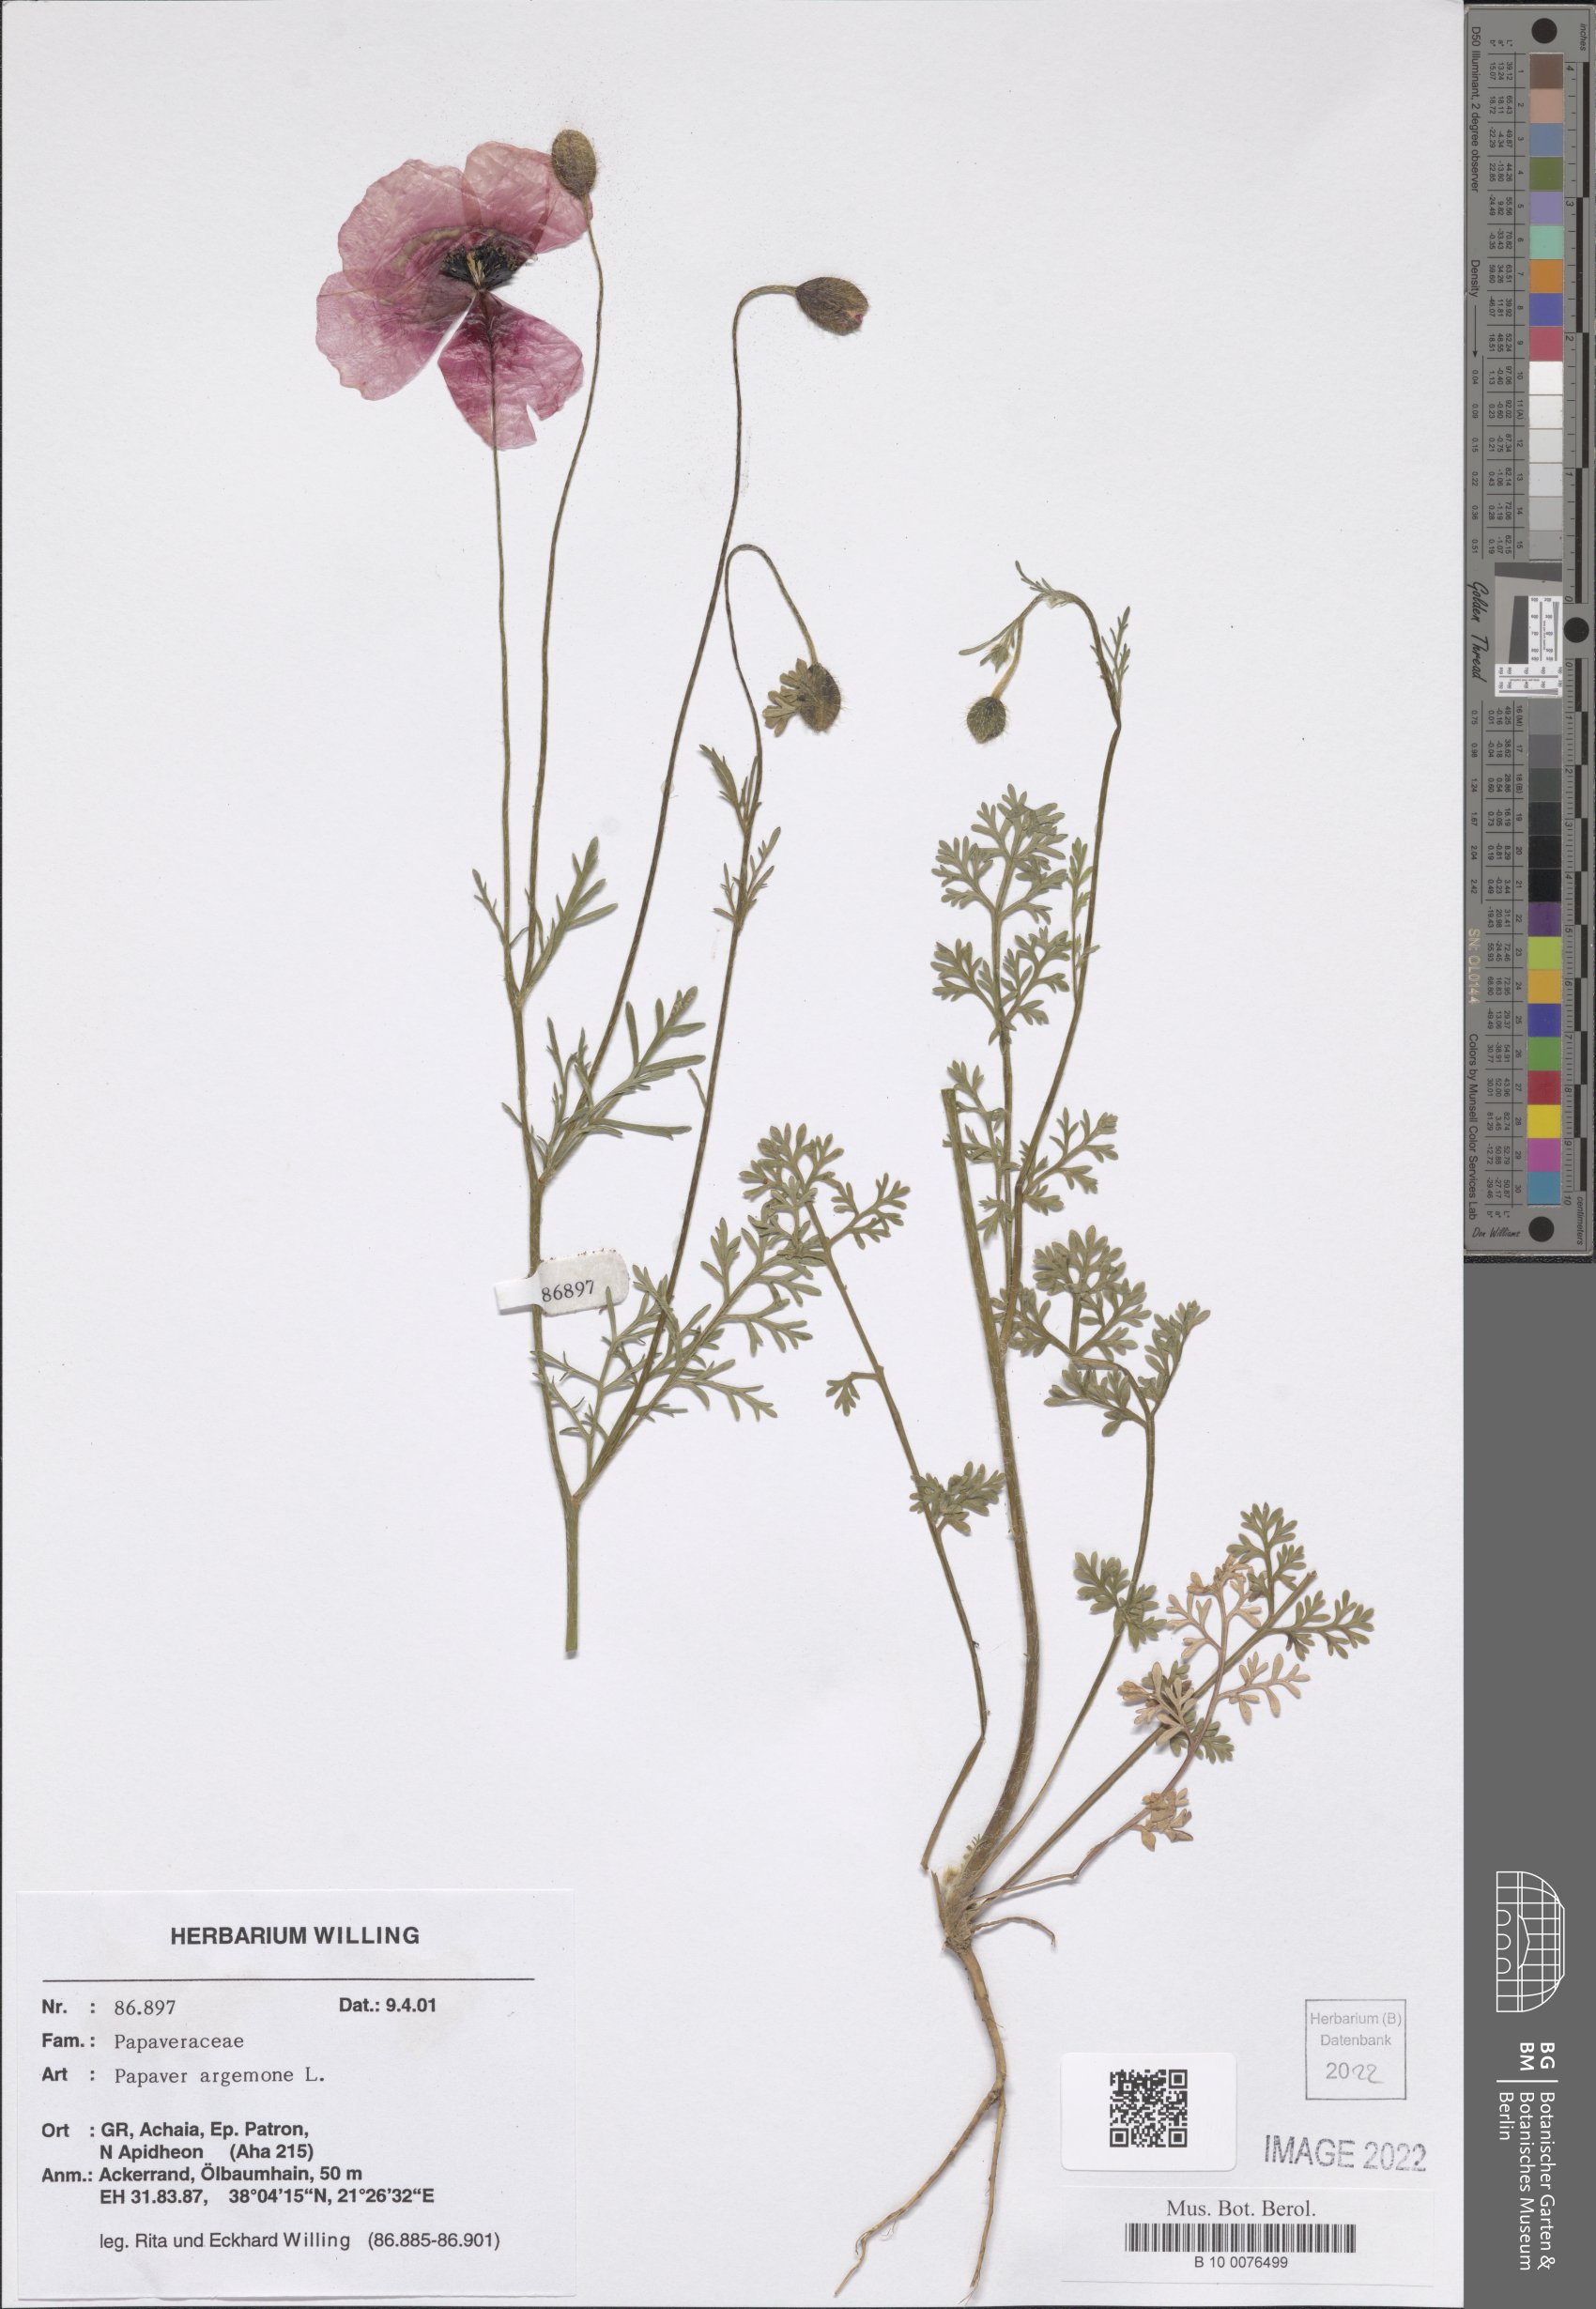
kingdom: Plantae
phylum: Tracheophyta
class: Magnoliopsida
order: Ranunculales
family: Papaveraceae
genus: Roemeria
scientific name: Roemeria argemone
